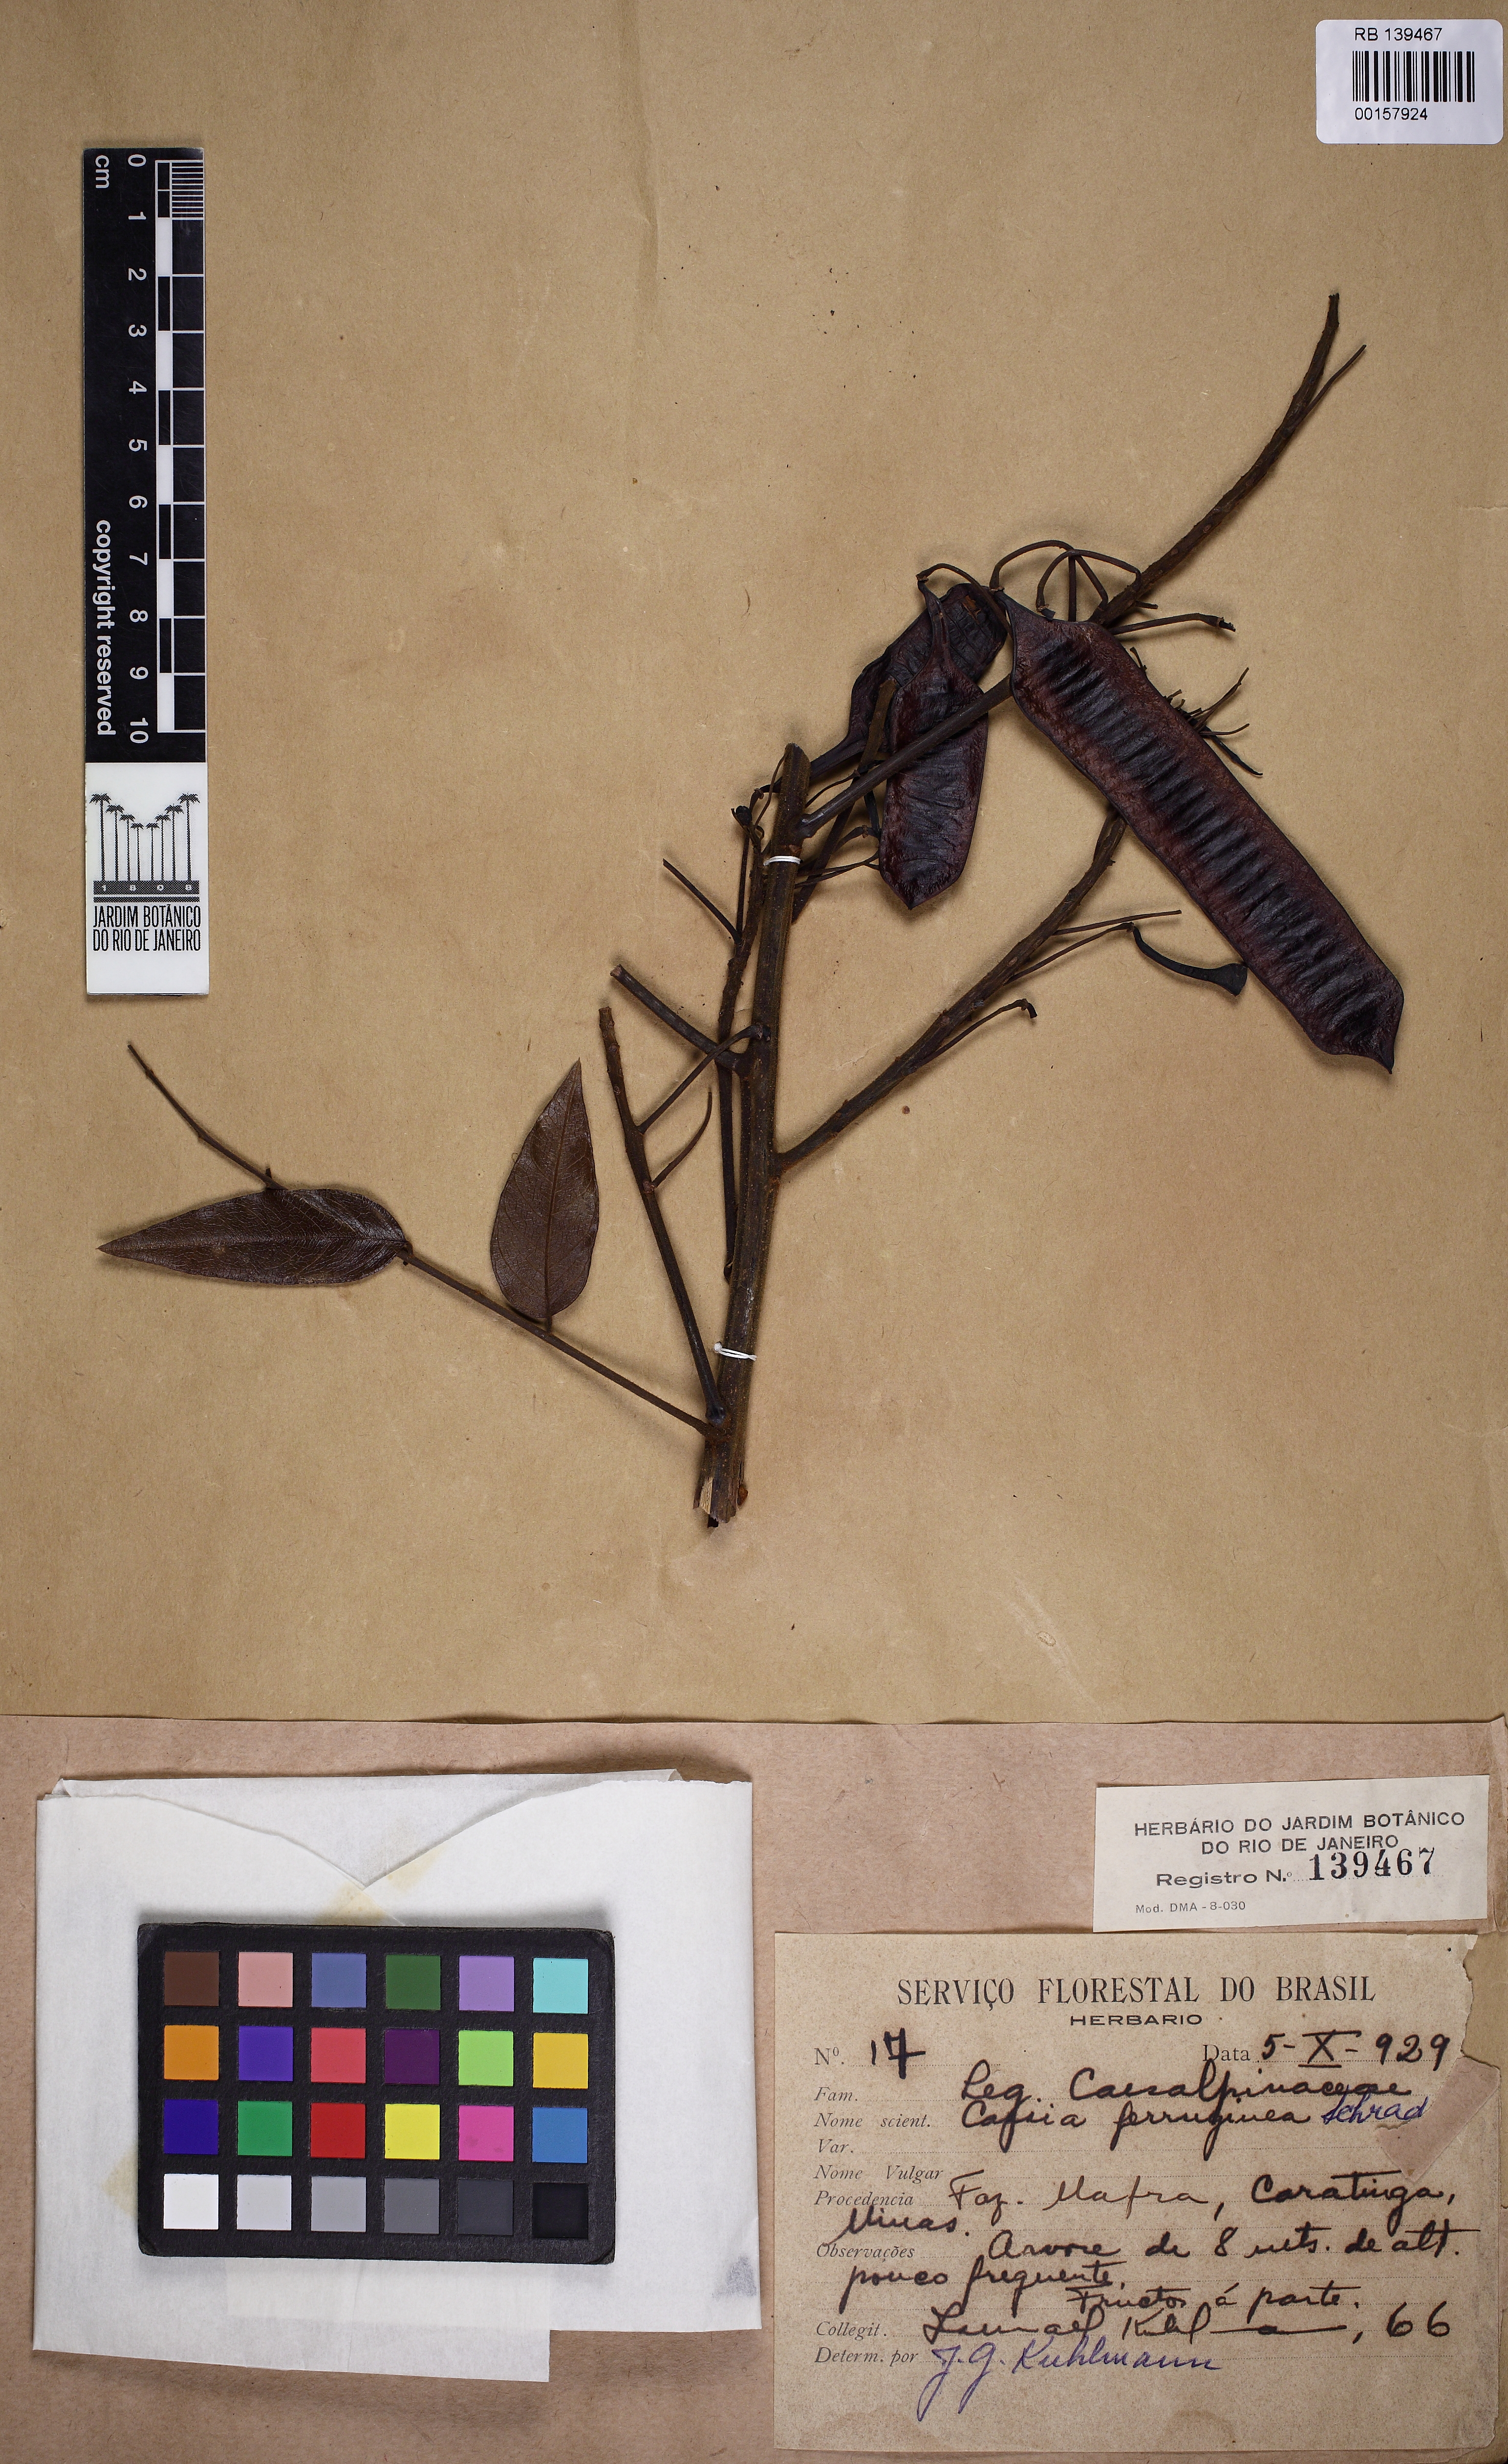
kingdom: Plantae
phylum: Tracheophyta
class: Magnoliopsida
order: Fabales
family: Fabaceae
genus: Senna
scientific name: Senna
